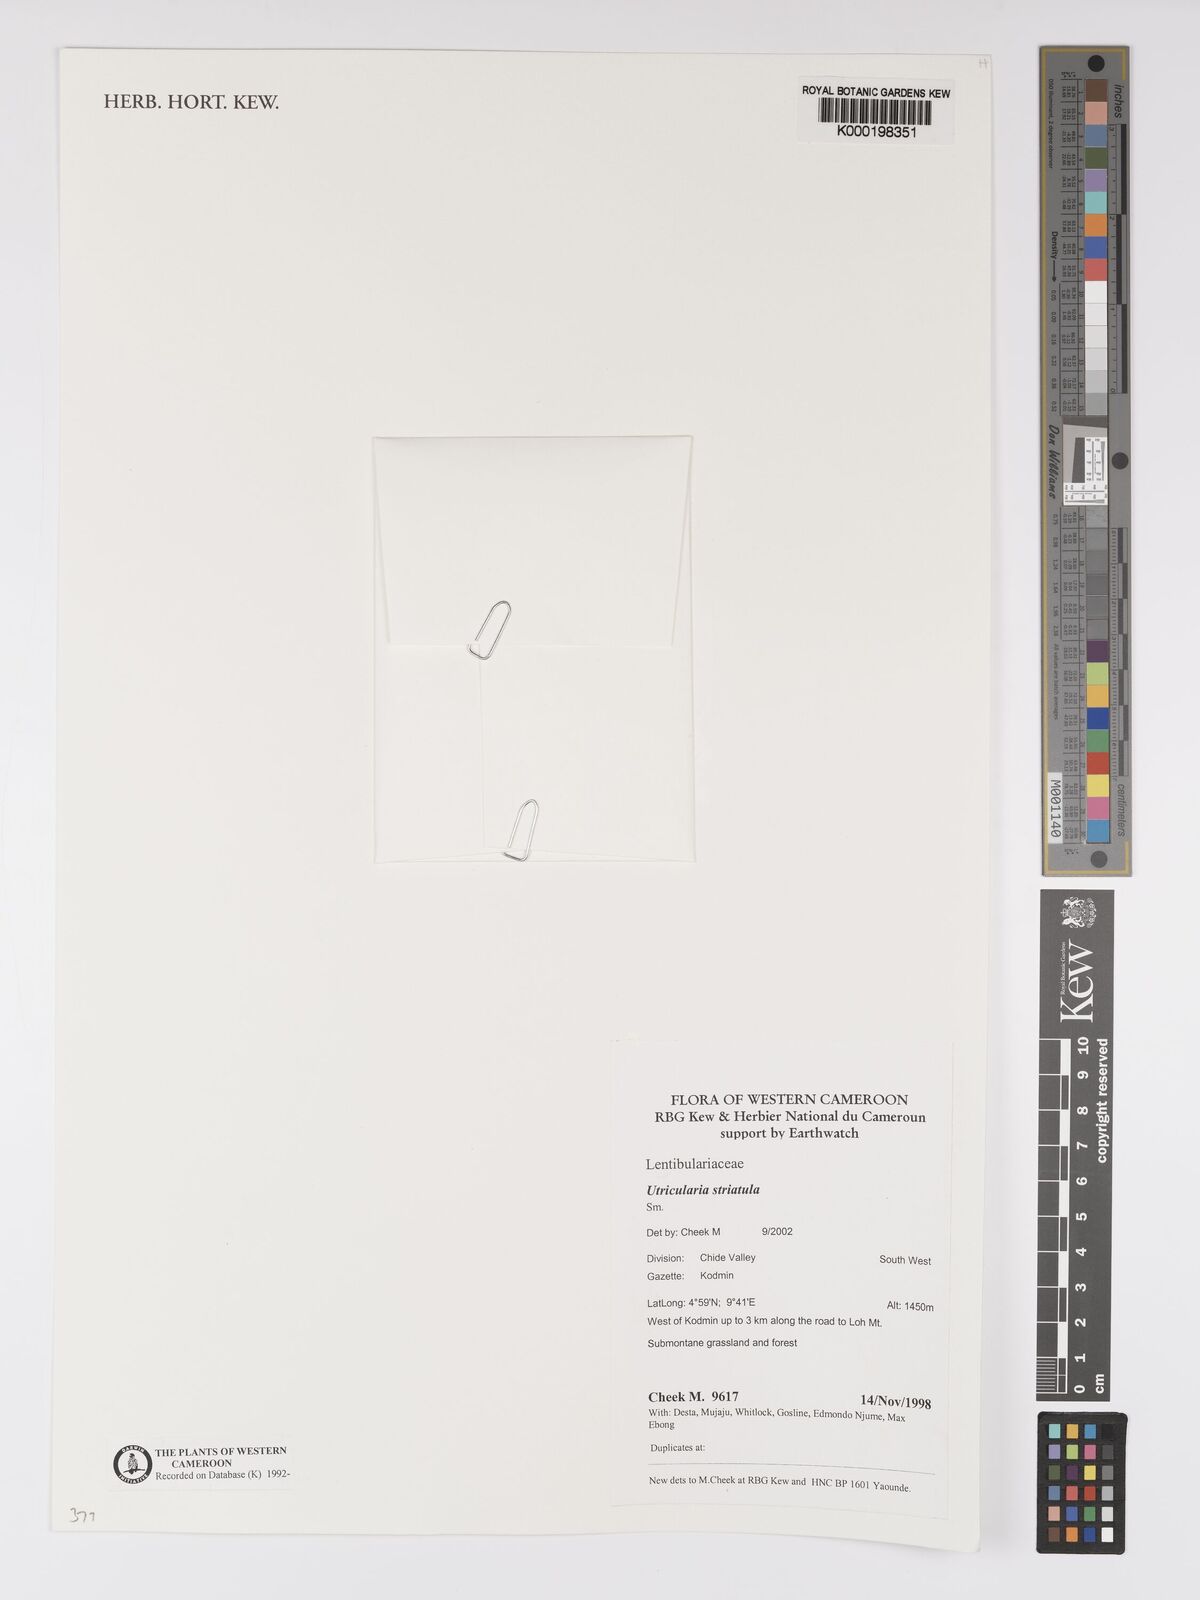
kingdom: Plantae
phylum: Tracheophyta
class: Magnoliopsida
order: Lamiales
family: Lentibulariaceae
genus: Utricularia
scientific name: Utricularia striatula
